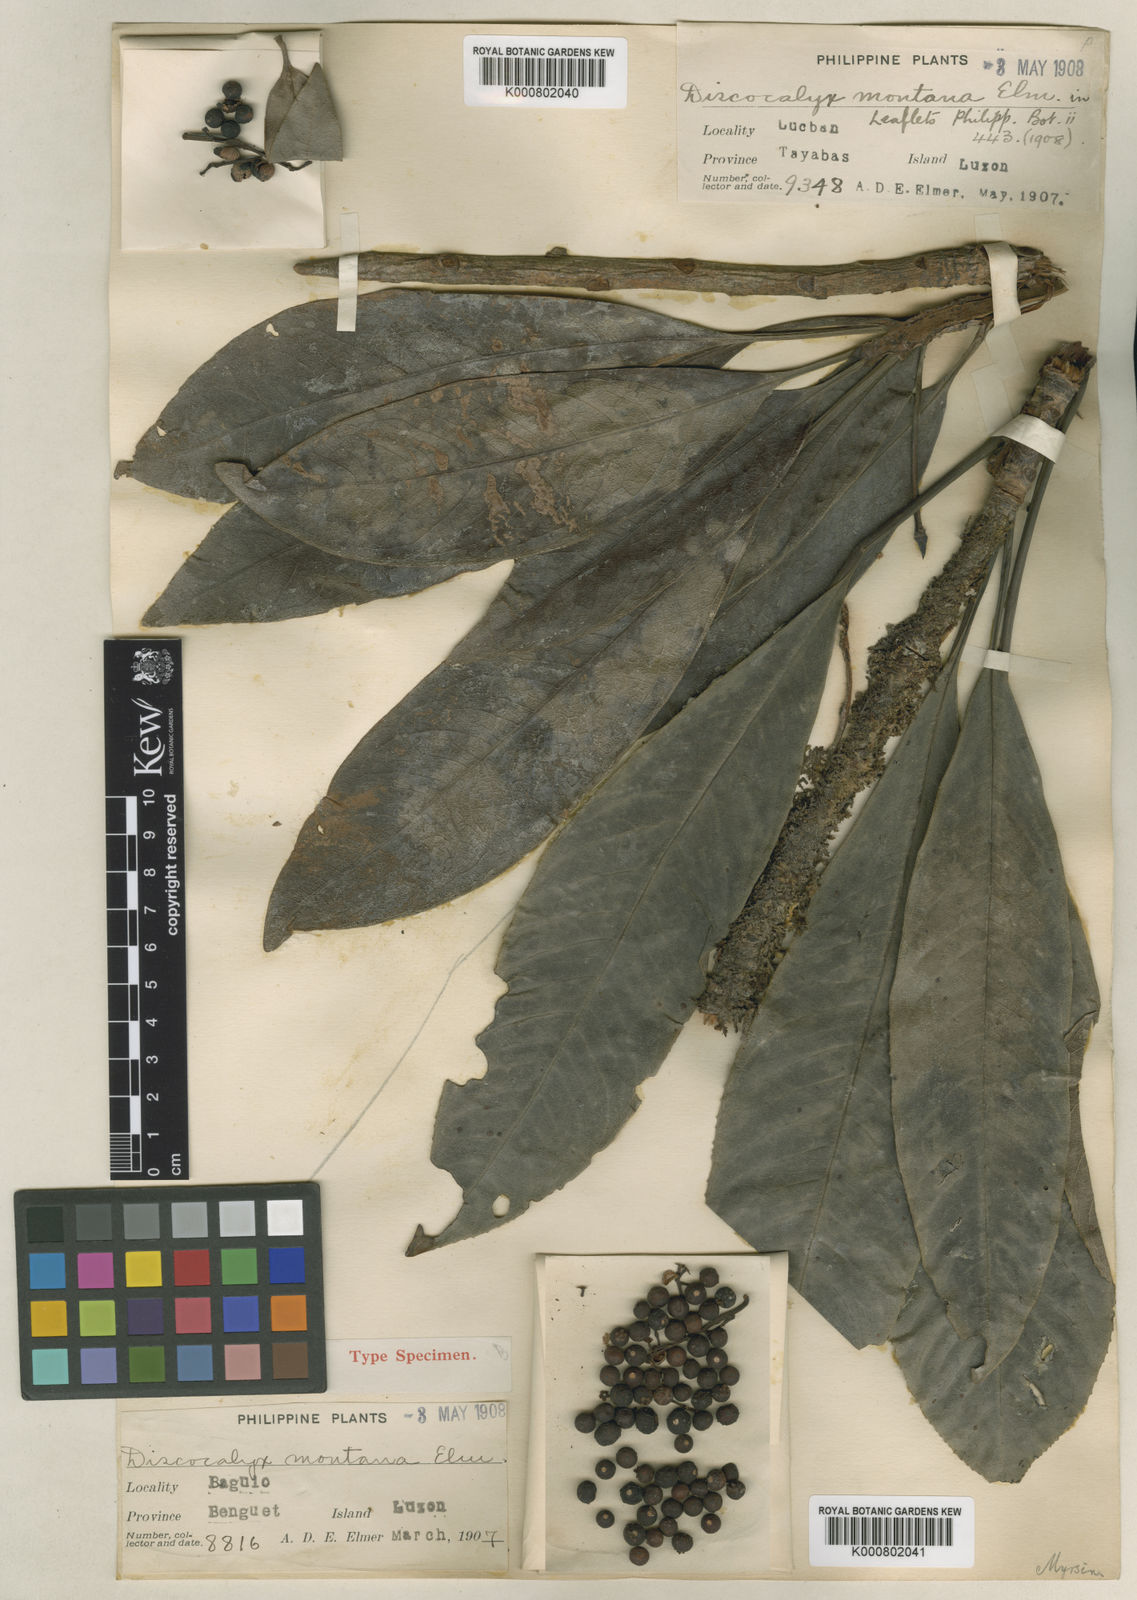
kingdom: Plantae
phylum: Tracheophyta
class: Magnoliopsida
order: Ericales
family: Primulaceae
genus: Discocalyx
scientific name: Discocalyx montana
